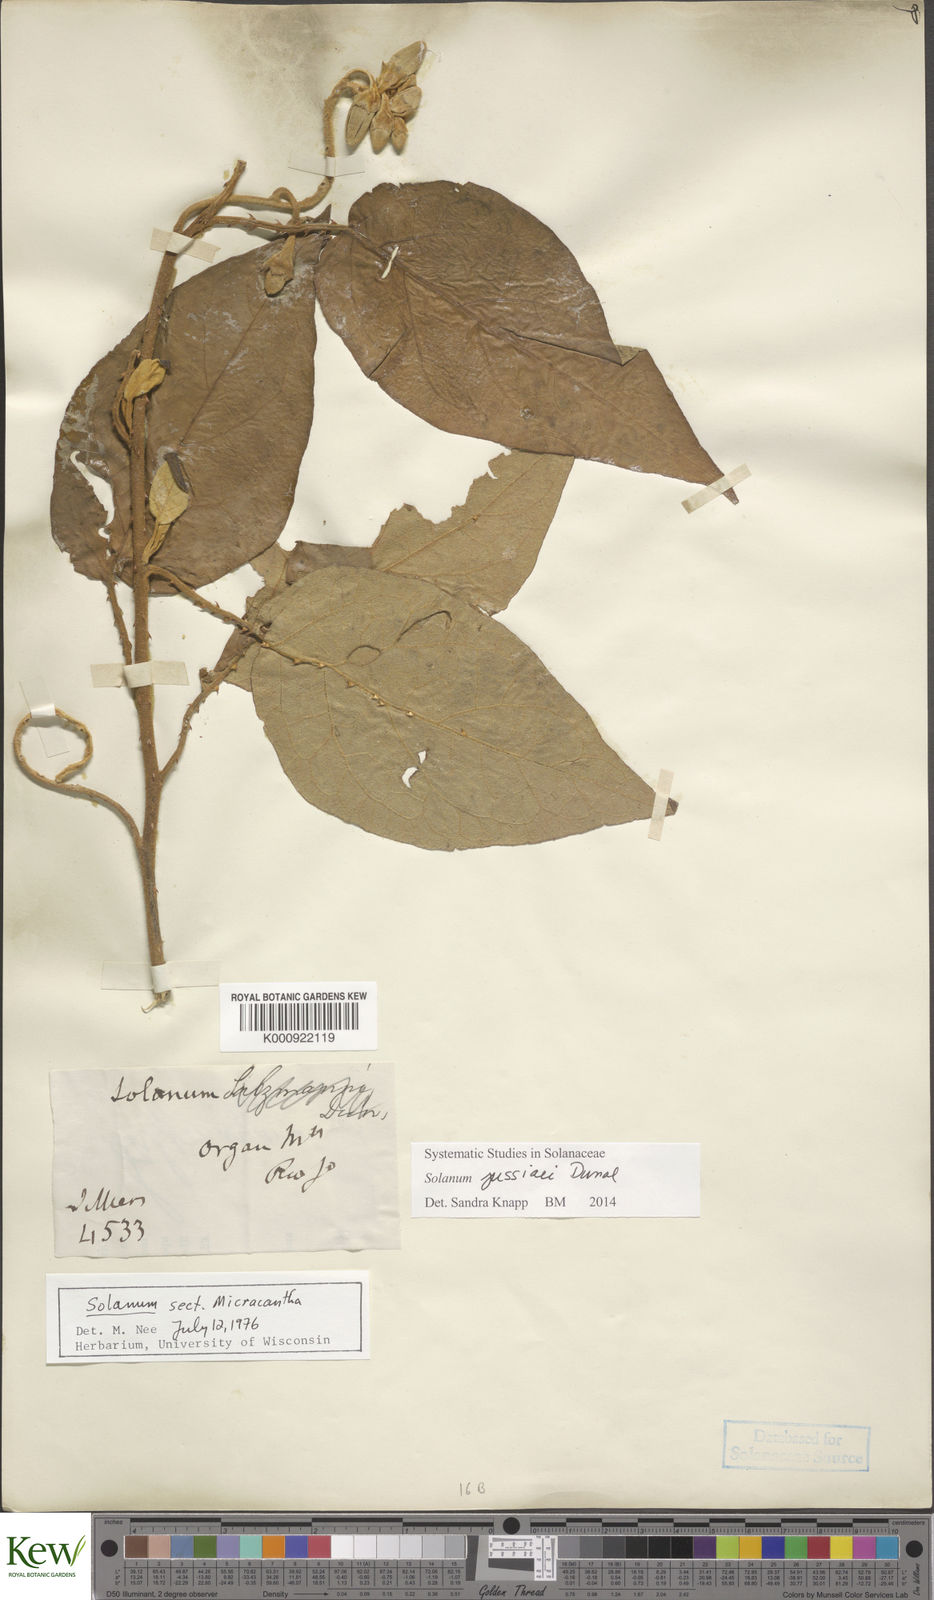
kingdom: Plantae
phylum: Tracheophyta
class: Magnoliopsida
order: Solanales
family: Solanaceae
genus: Solanum
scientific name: Solanum jussiaei
